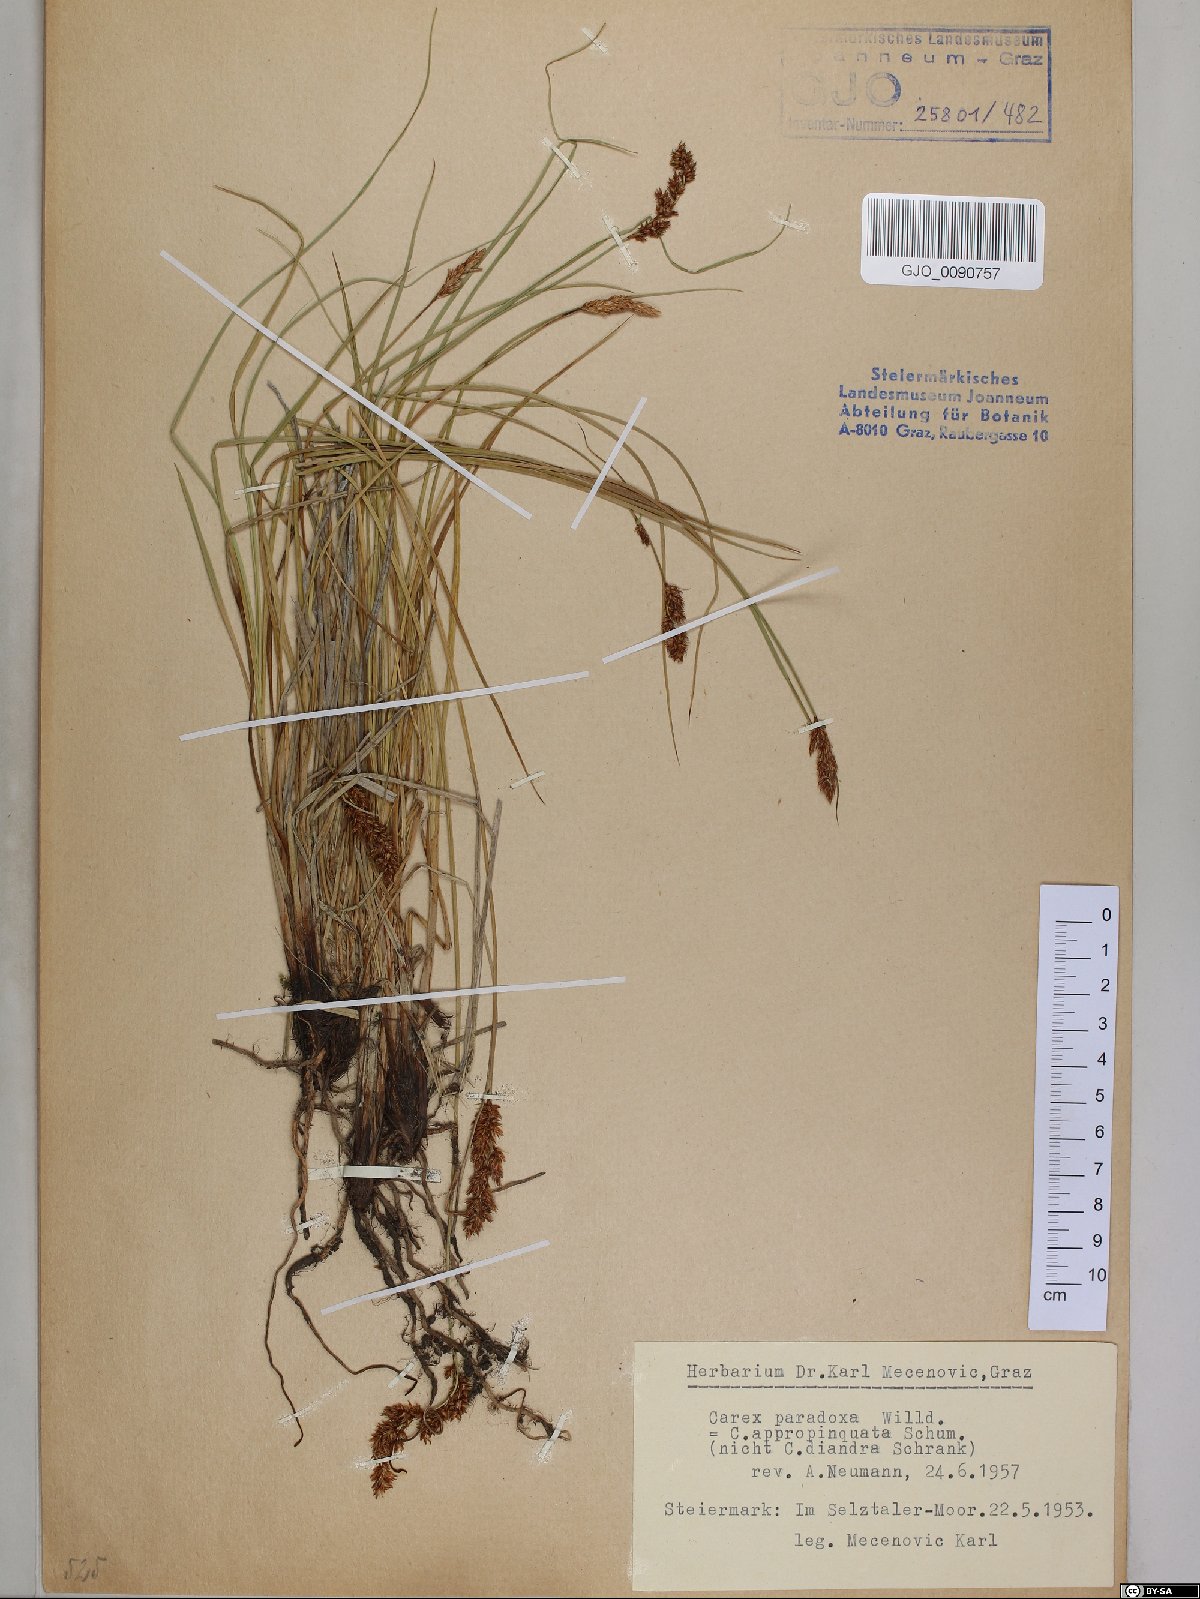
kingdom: Plantae
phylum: Tracheophyta
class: Liliopsida
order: Poales
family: Cyperaceae
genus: Carex
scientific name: Carex appropinquata
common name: Fibrous tussock-sedge
